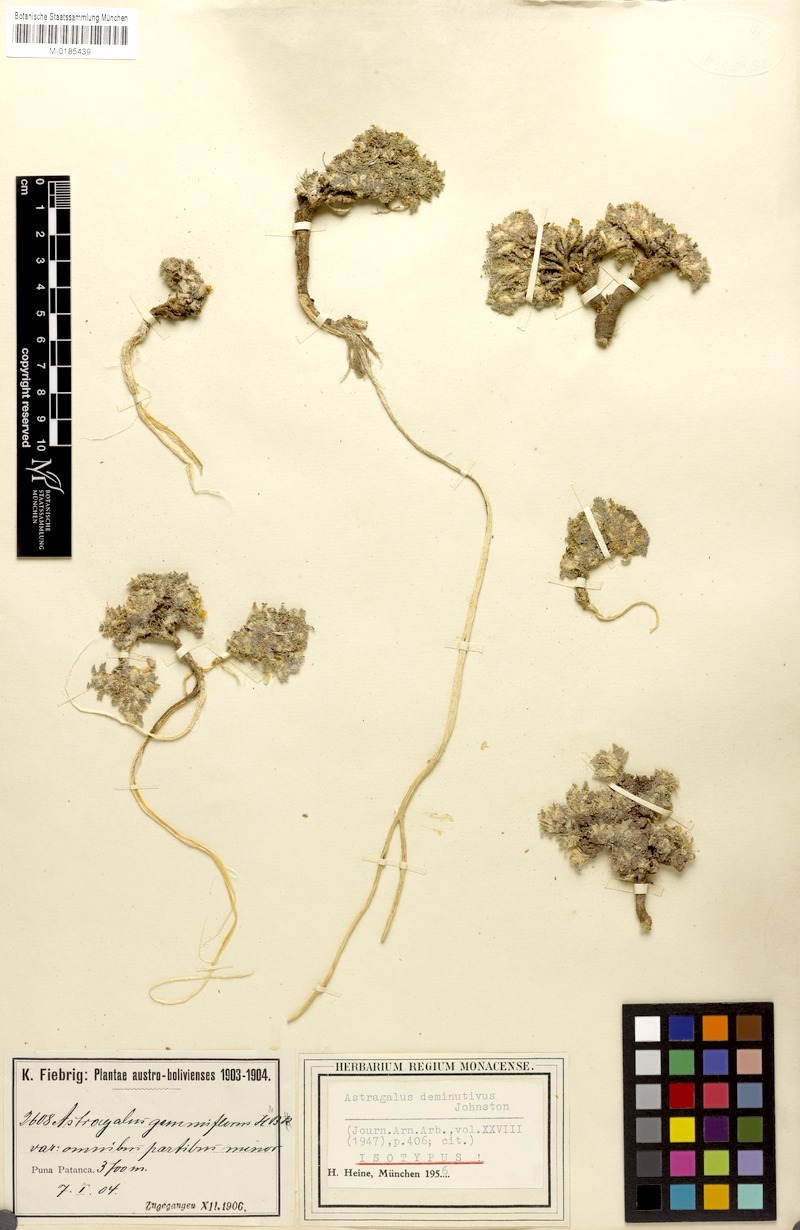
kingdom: Plantae
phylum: Tracheophyta
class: Magnoliopsida
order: Fabales
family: Fabaceae
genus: Astragalus
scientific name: Astragalus diminutivus
